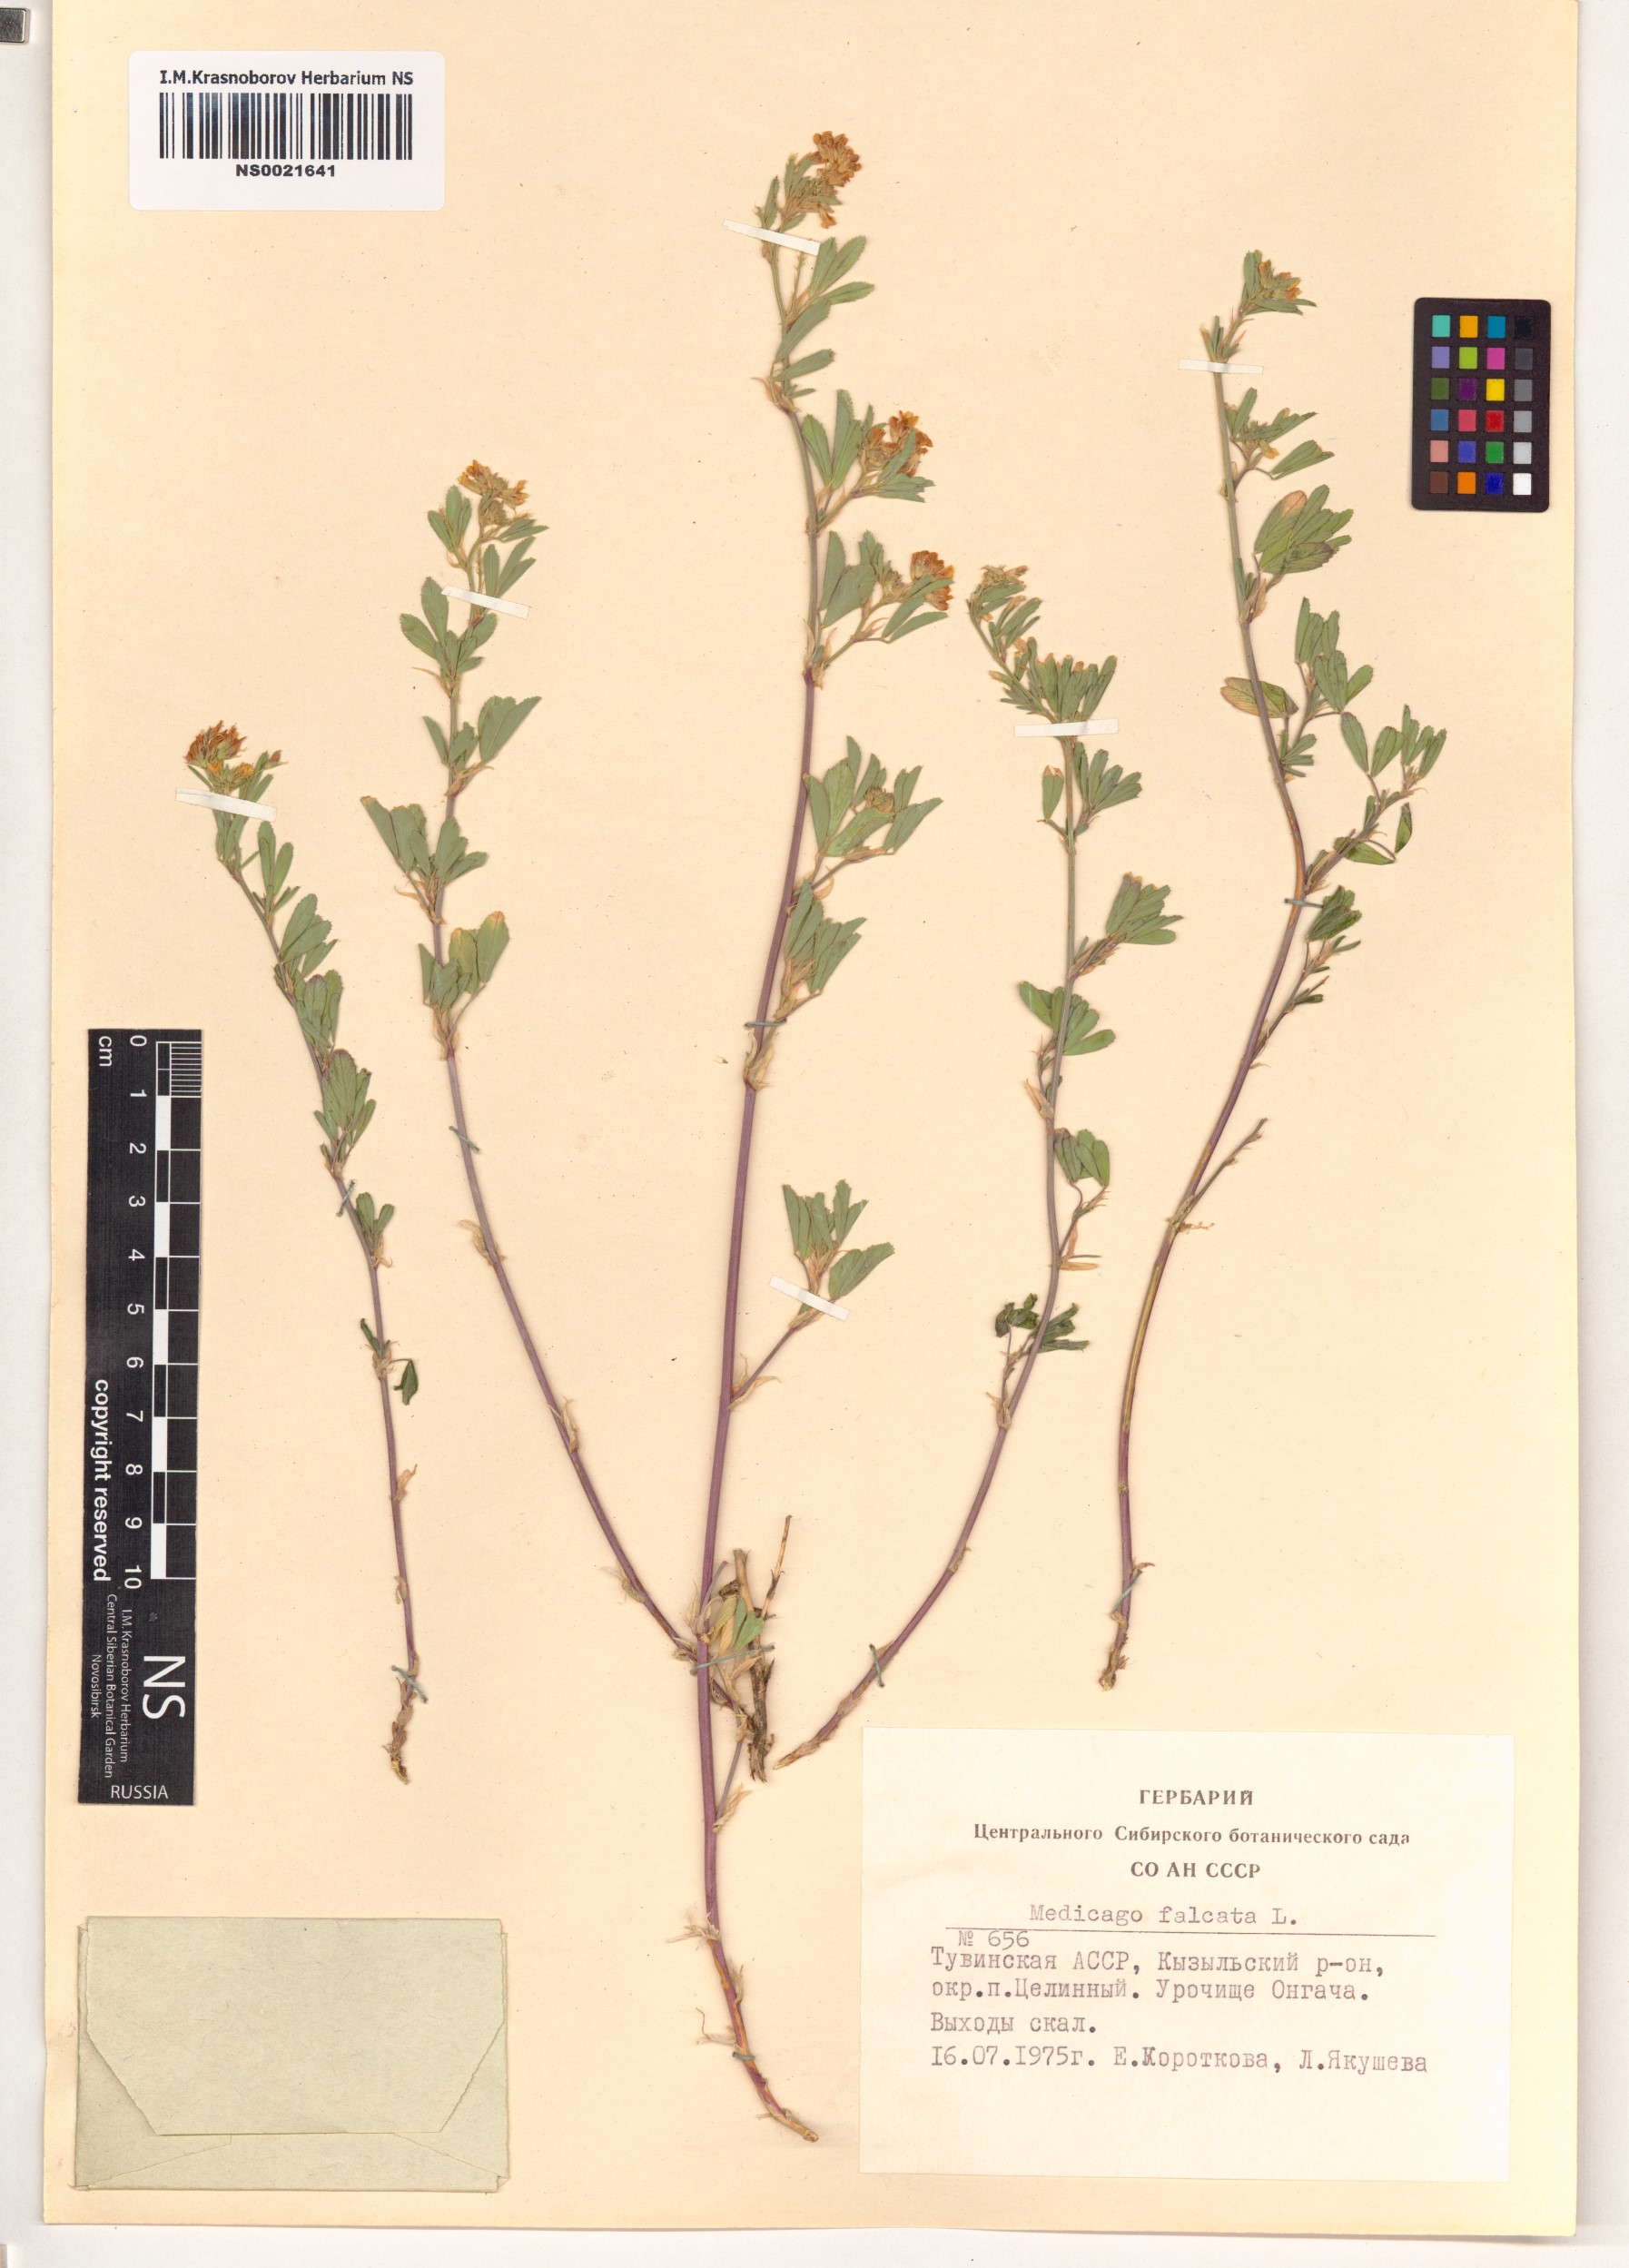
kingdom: Plantae
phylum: Tracheophyta
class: Magnoliopsida
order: Fabales
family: Fabaceae
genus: Medicago
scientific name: Medicago falcata
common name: Sickle medick
